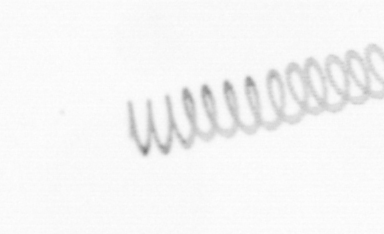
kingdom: Chromista
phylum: Ochrophyta
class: Bacillariophyceae
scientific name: Bacillariophyceae
